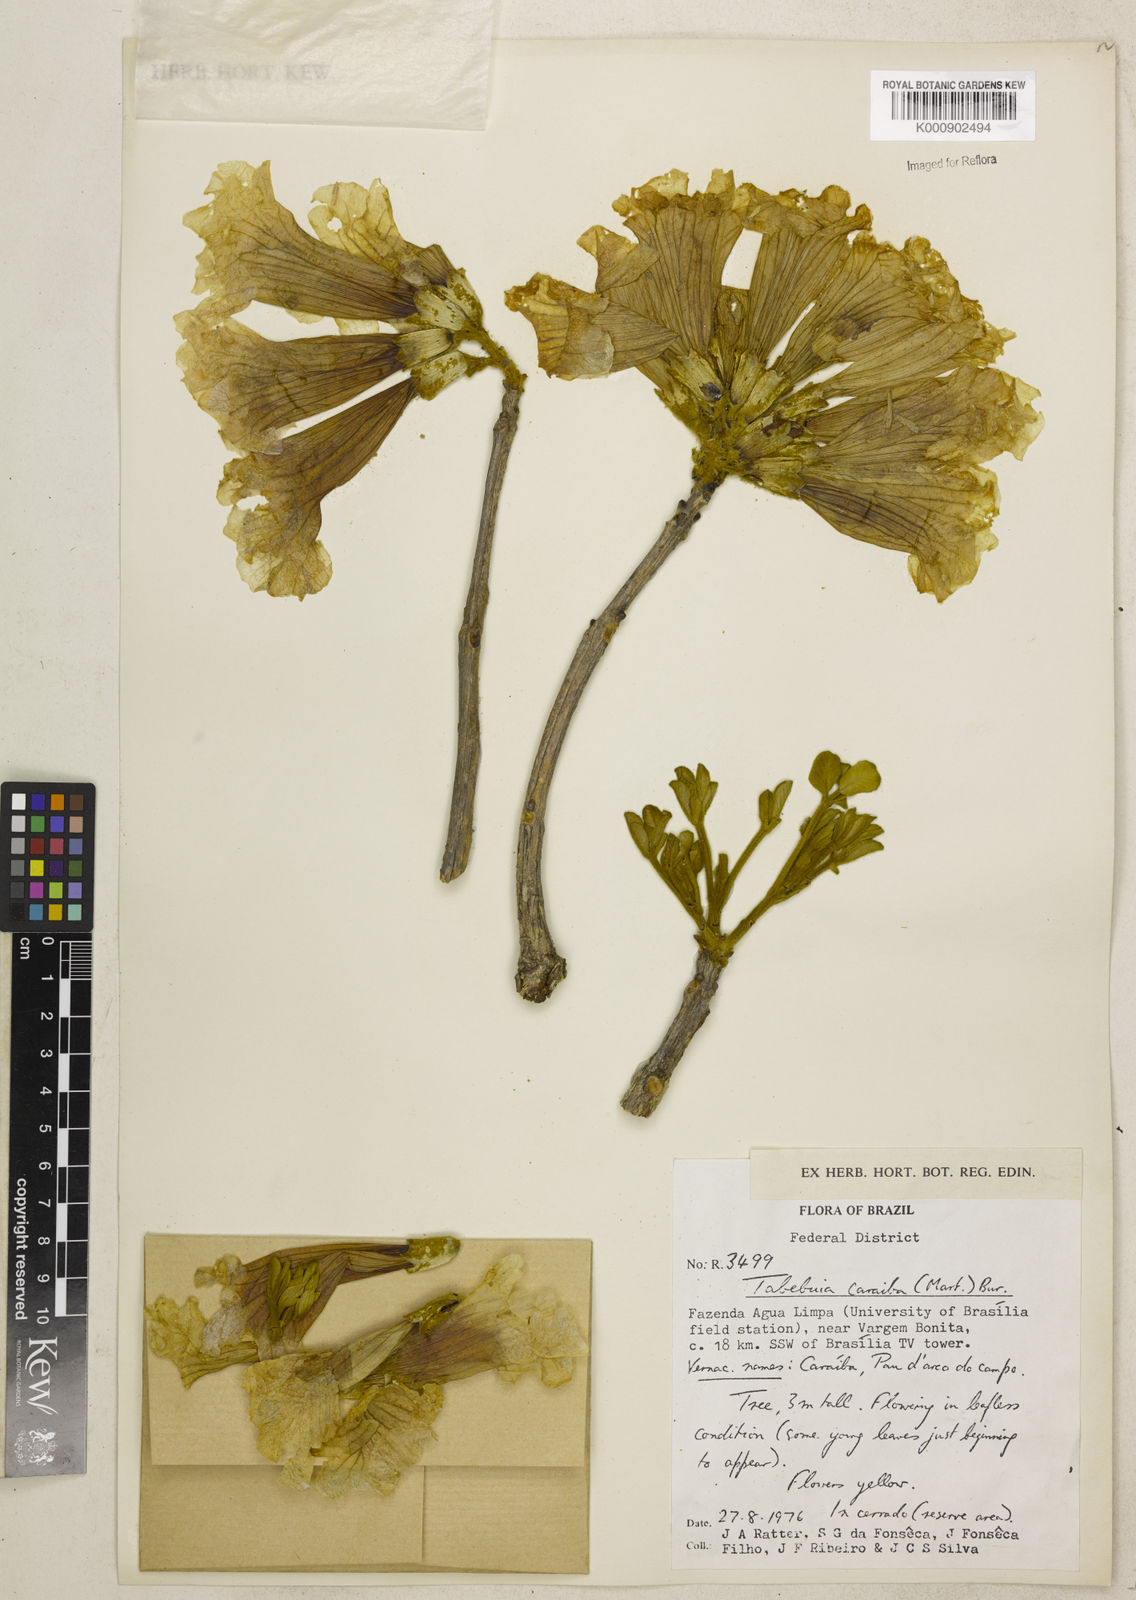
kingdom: Plantae
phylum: Tracheophyta
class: Magnoliopsida
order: Lamiales
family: Bignoniaceae
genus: Tabebuia
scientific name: Tabebuia aurea
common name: Caribbean trumpet-tree
